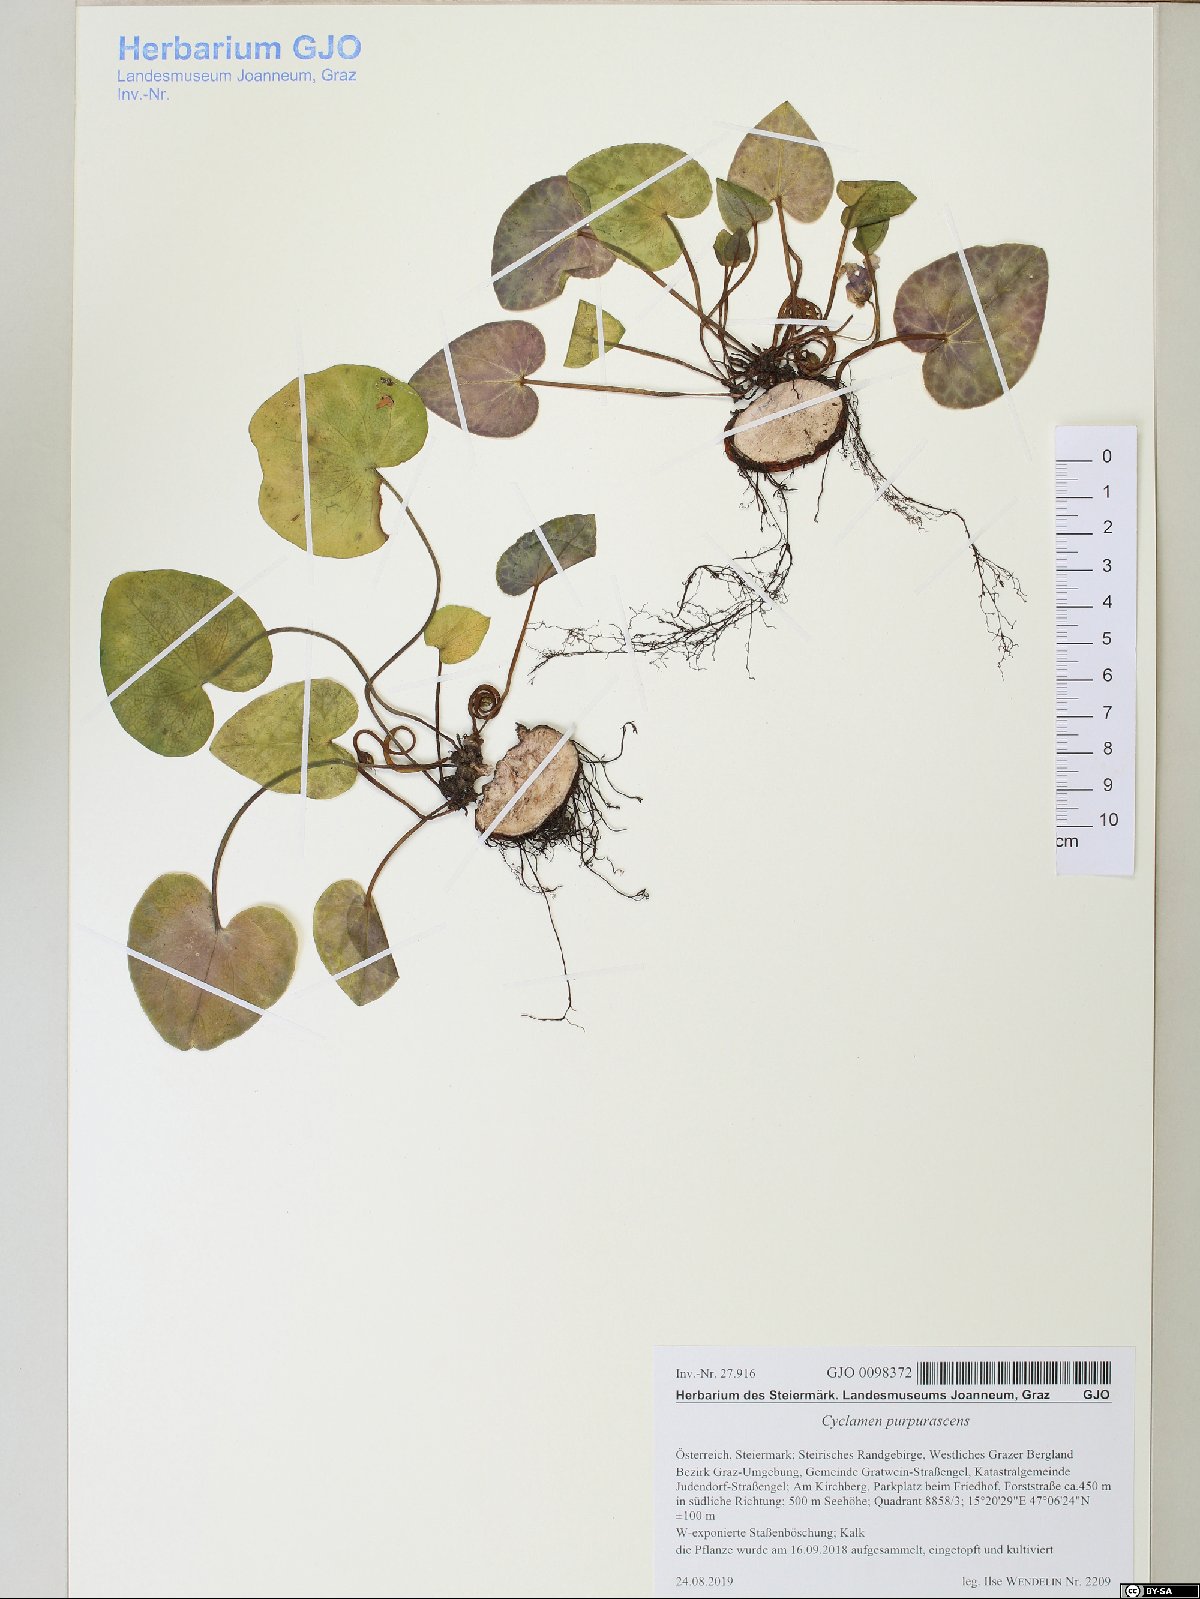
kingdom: Plantae
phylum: Tracheophyta
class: Magnoliopsida
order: Ericales
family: Primulaceae
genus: Cyclamen
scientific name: Cyclamen purpurascens
